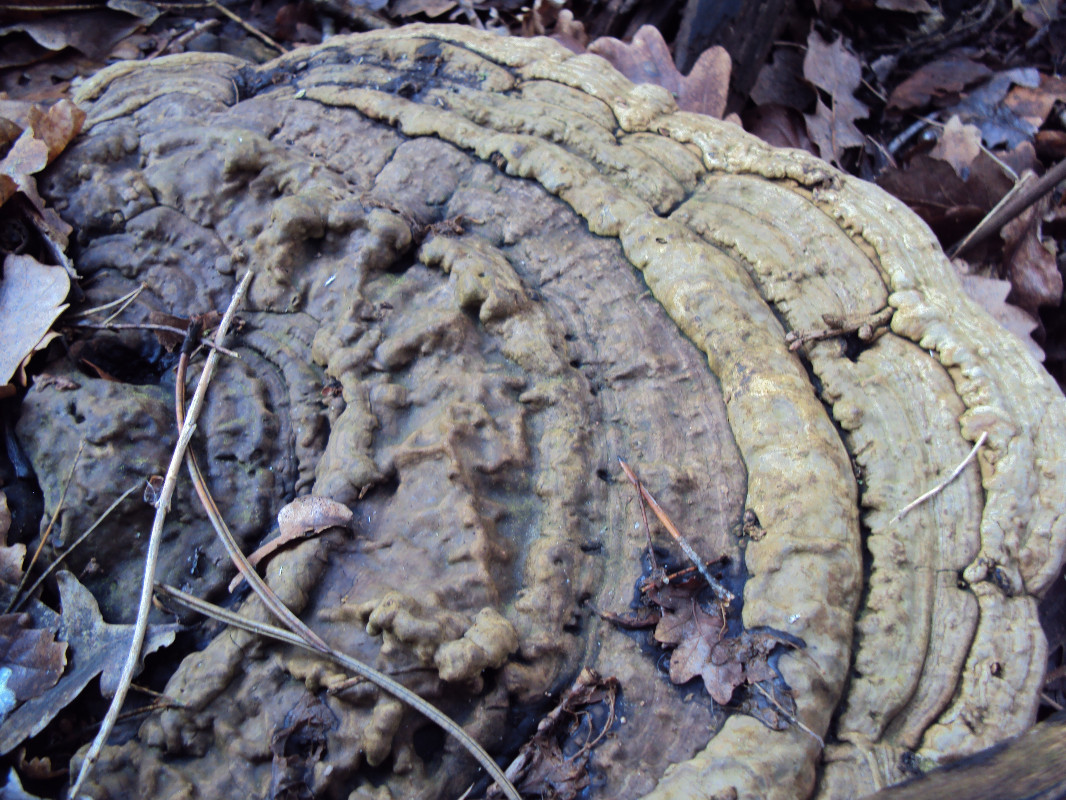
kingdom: Fungi
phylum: Basidiomycota
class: Agaricomycetes
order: Polyporales
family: Polyporaceae
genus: Ganoderma
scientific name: Ganoderma applanatum
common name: flad lakporesvamp
